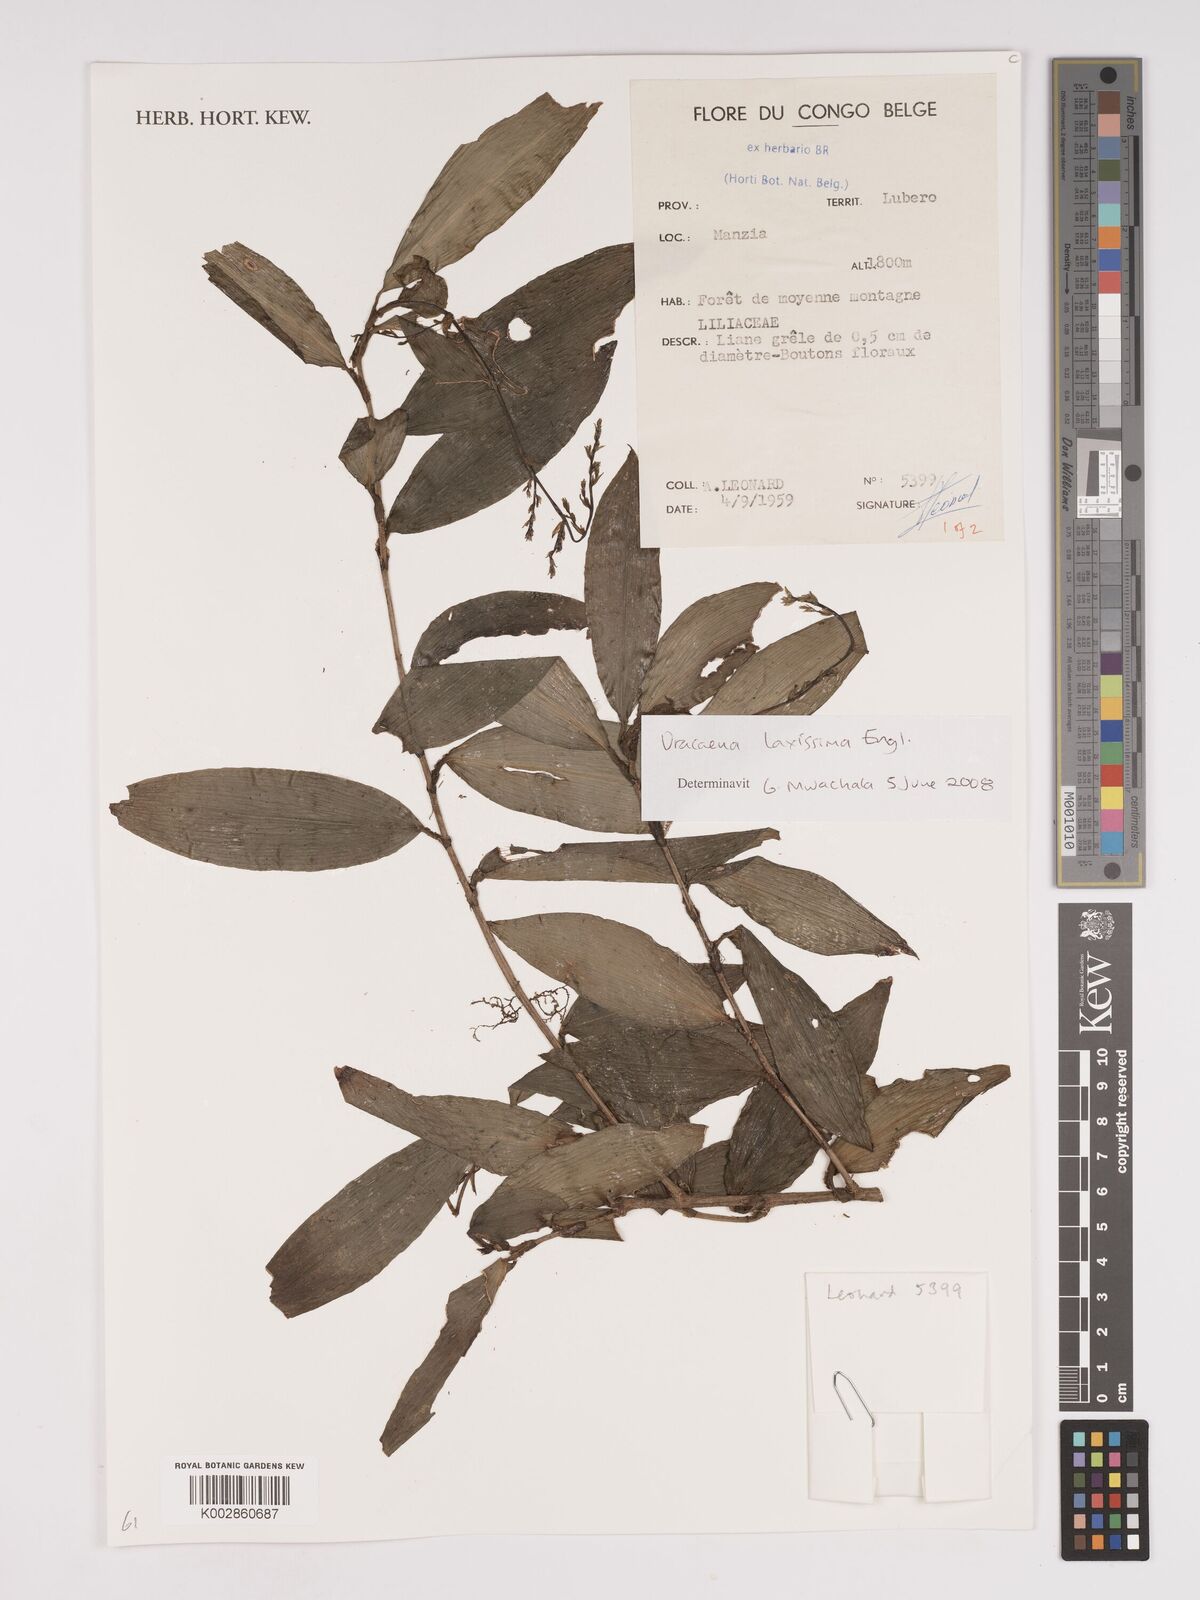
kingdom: Plantae
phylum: Tracheophyta
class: Liliopsida
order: Asparagales
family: Asparagaceae
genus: Dracaena
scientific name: Dracaena laxissima
